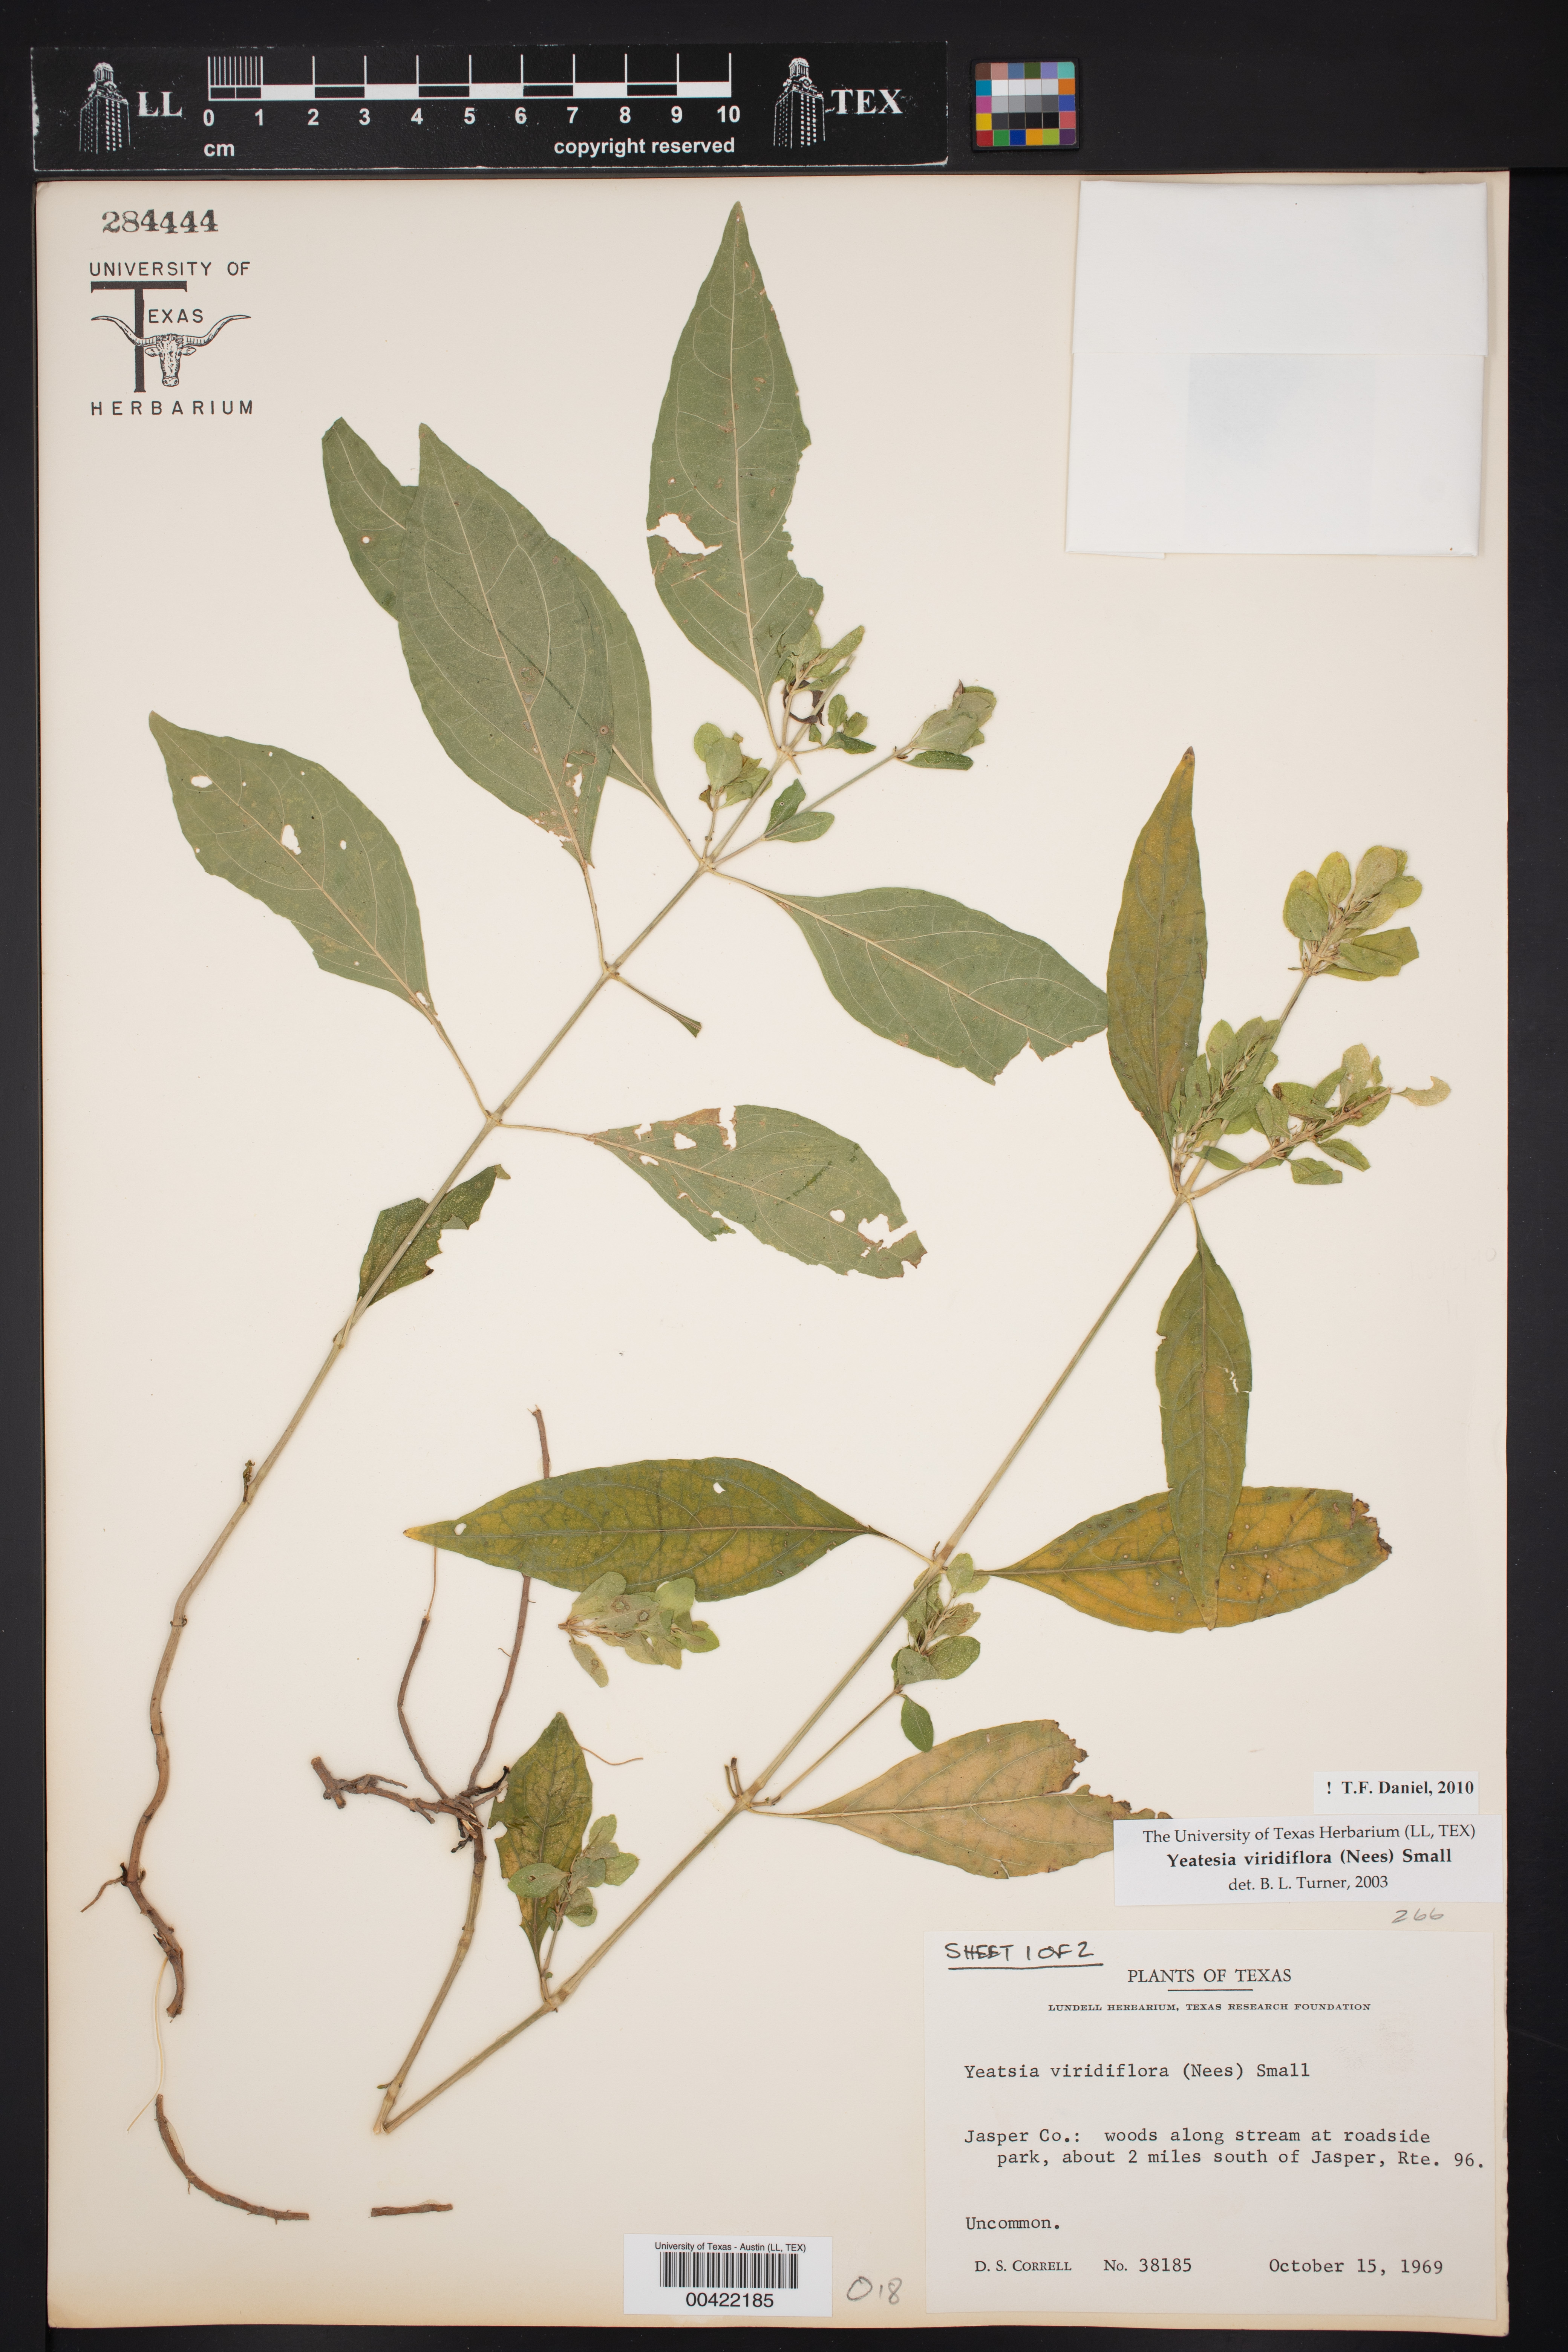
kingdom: Plantae
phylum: Tracheophyta
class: Magnoliopsida
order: Lamiales
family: Acanthaceae
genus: Yeatesia
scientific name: Yeatesia viridiflora
